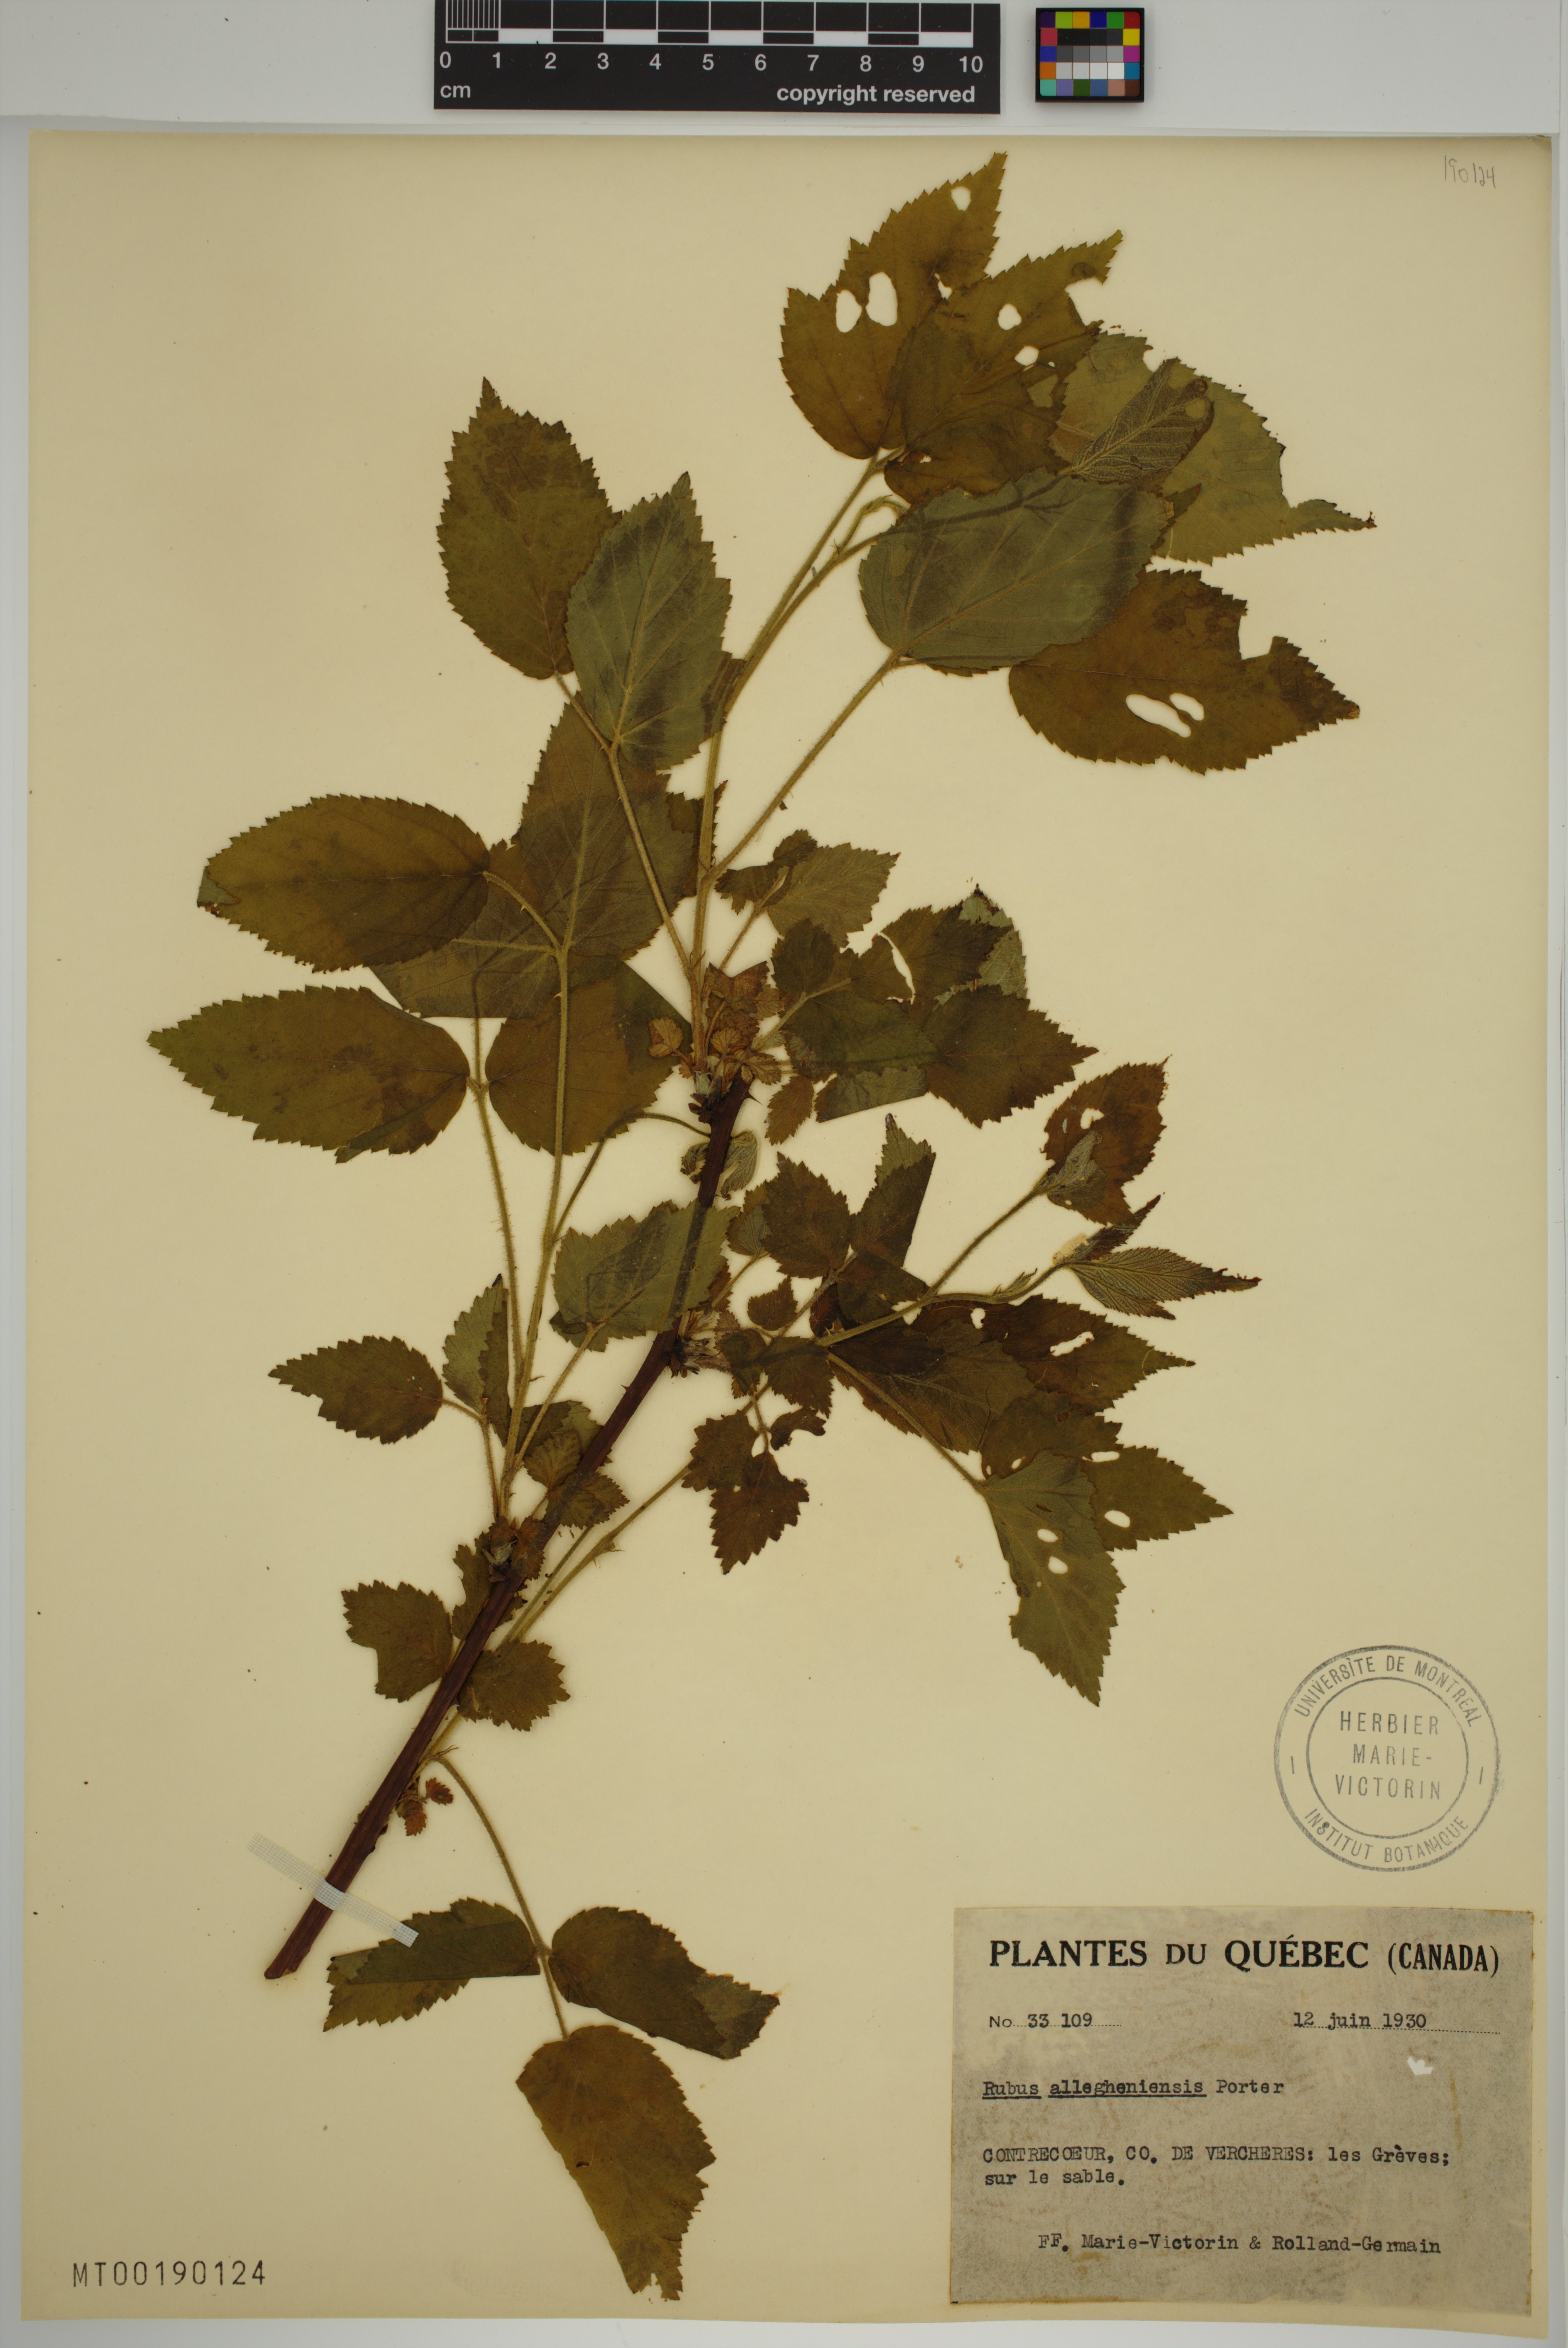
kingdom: Plantae
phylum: Tracheophyta
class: Magnoliopsida
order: Rosales
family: Rosaceae
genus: Rubus
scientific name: Rubus allegheniensis
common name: Allegheny blackberry
